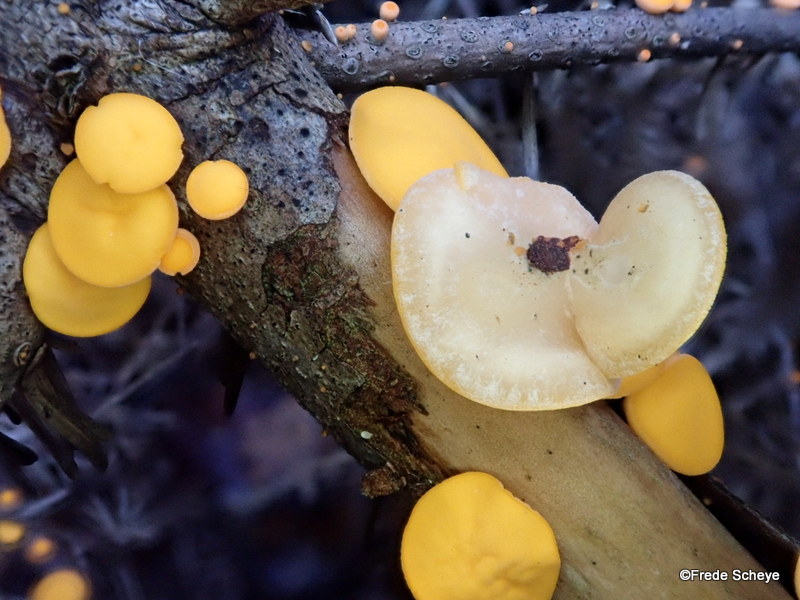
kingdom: Fungi
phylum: Ascomycota
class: Pezizomycetes
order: Pezizales
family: Sarcoscyphaceae
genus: Pithya
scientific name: Pithya vulgaris
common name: stor dukatbæger
